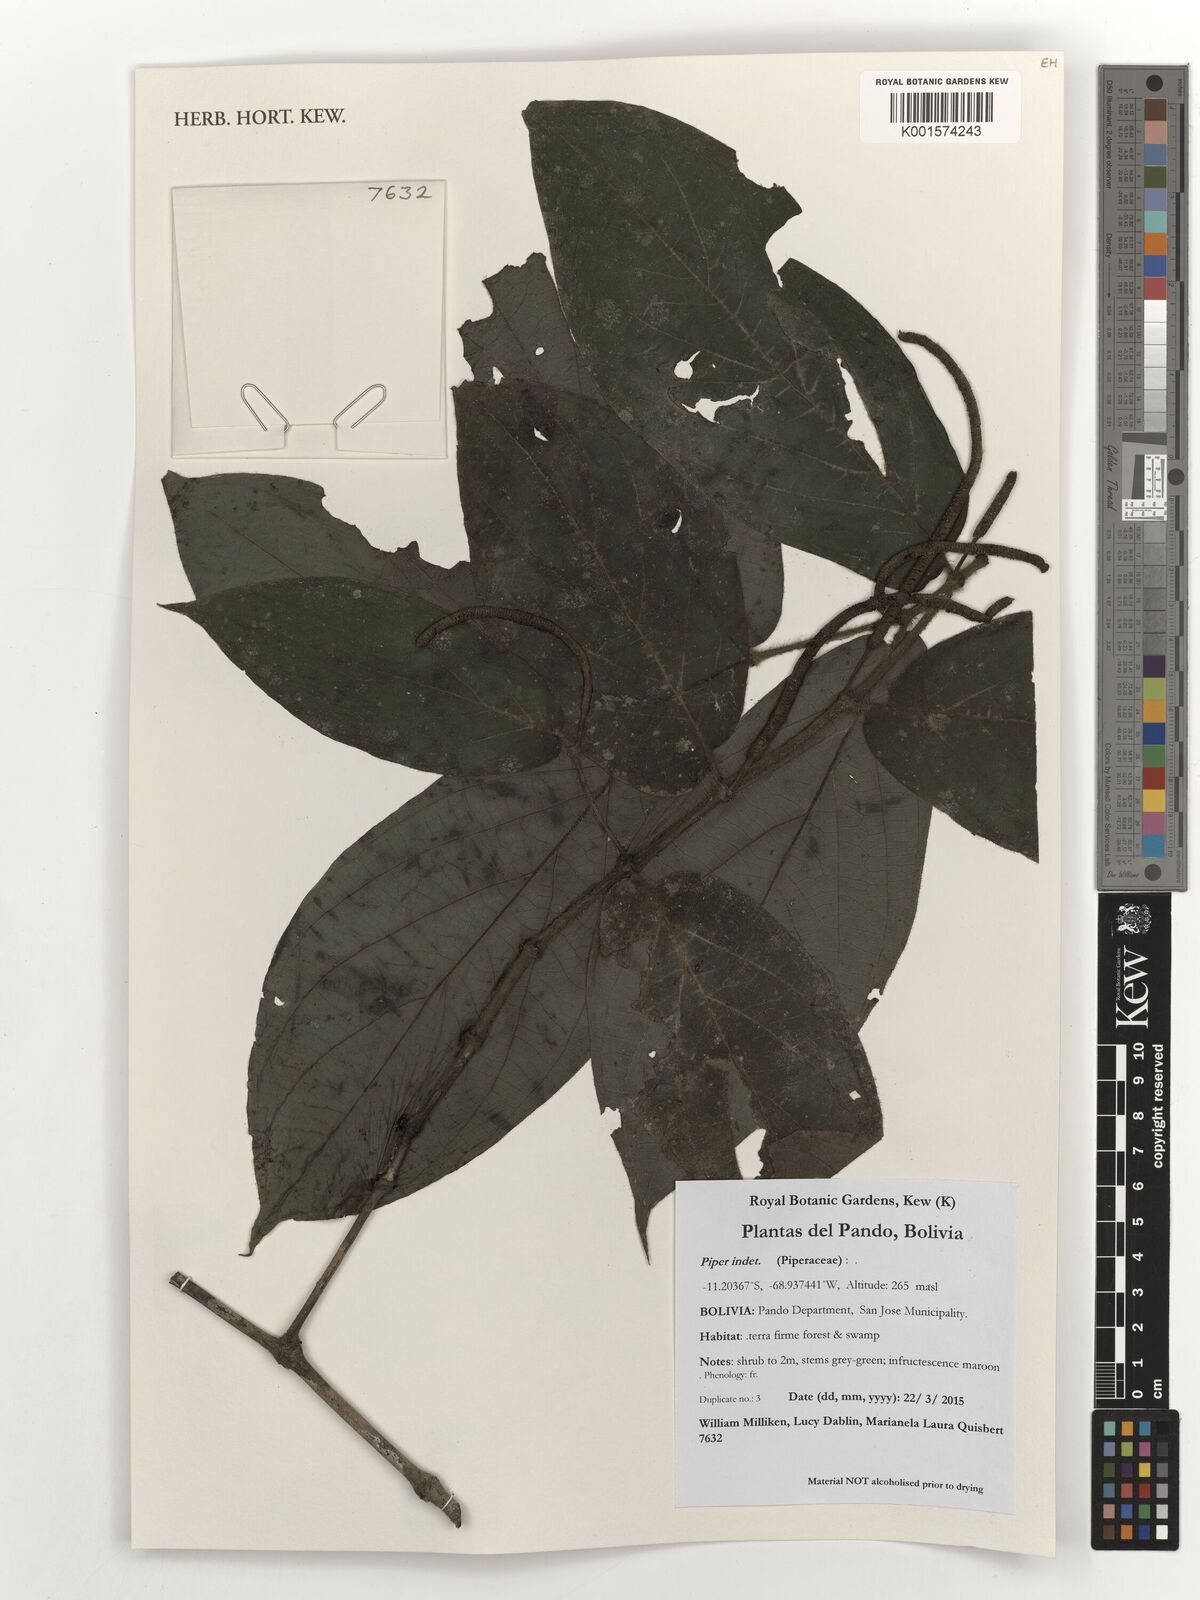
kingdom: Plantae
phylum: Tracheophyta
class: Magnoliopsida
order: Piperales
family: Piperaceae
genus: Piper
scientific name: Piper
